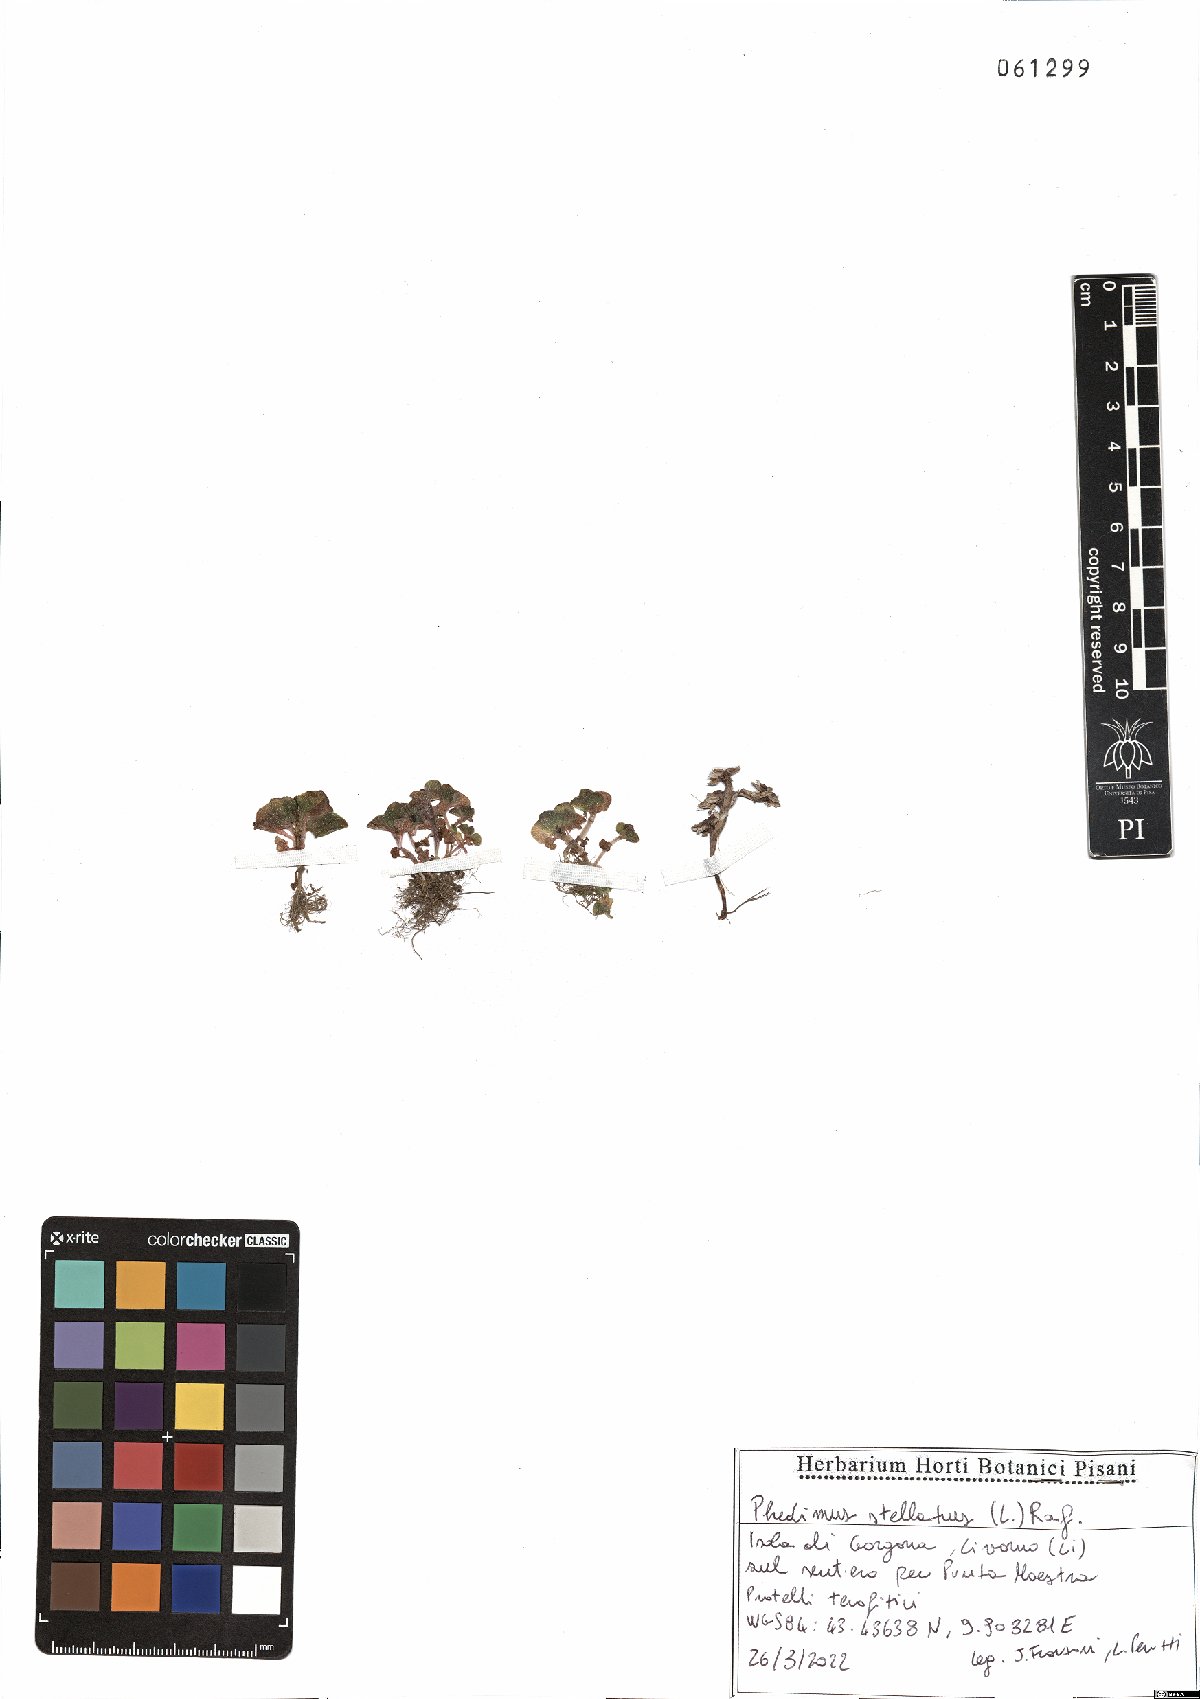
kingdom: Plantae
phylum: Tracheophyta
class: Magnoliopsida
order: Saxifragales
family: Crassulaceae
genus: Phedimus
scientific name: Phedimus stellatus
